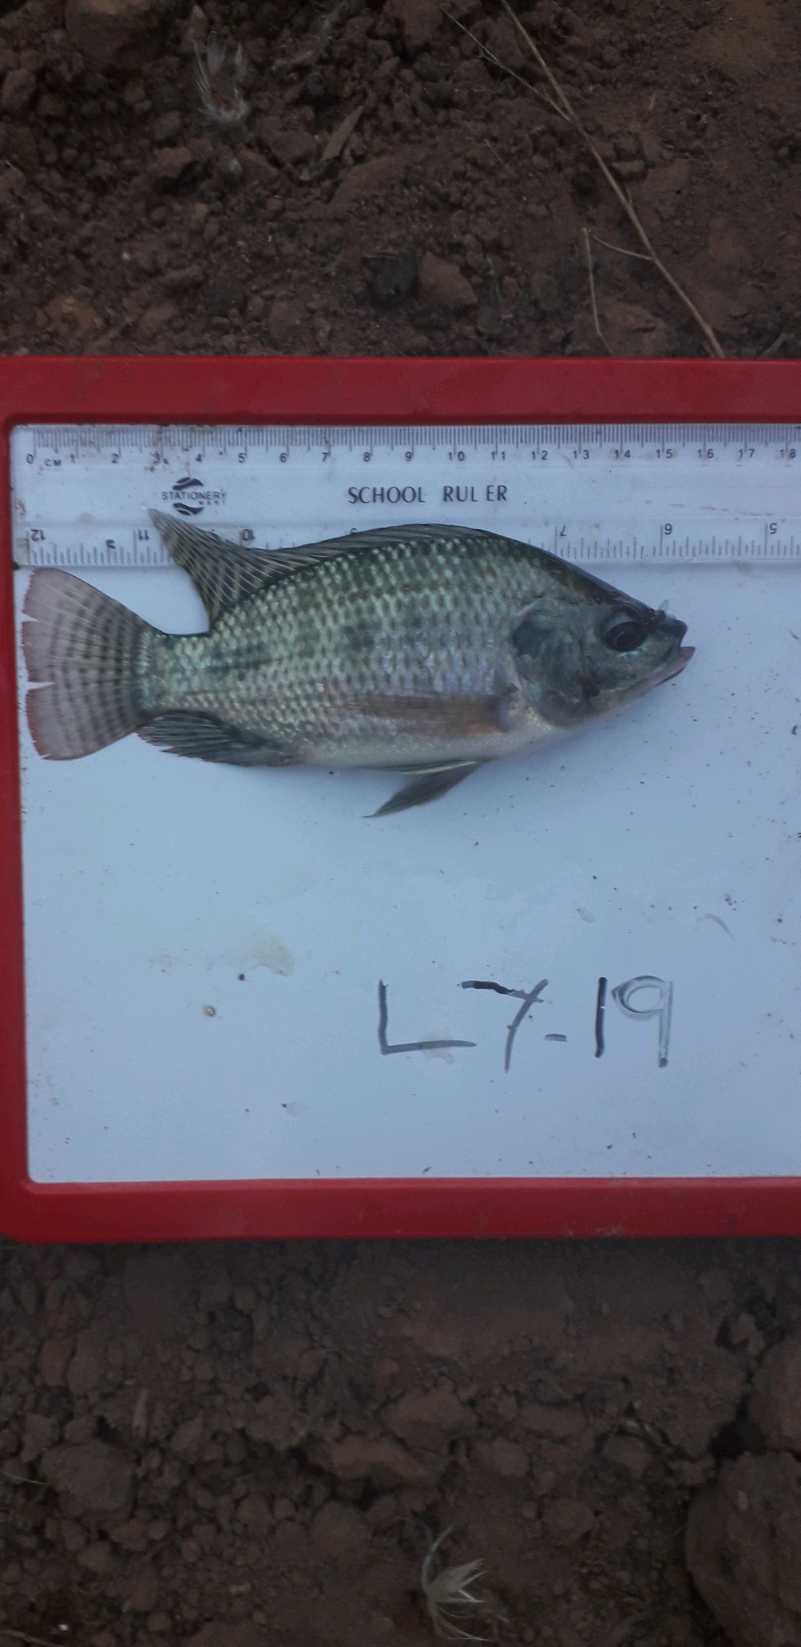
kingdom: Animalia
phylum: Chordata
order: Perciformes
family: Cichlidae
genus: Oreochromis
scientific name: Oreochromis niloticus
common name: Nile tilapia
